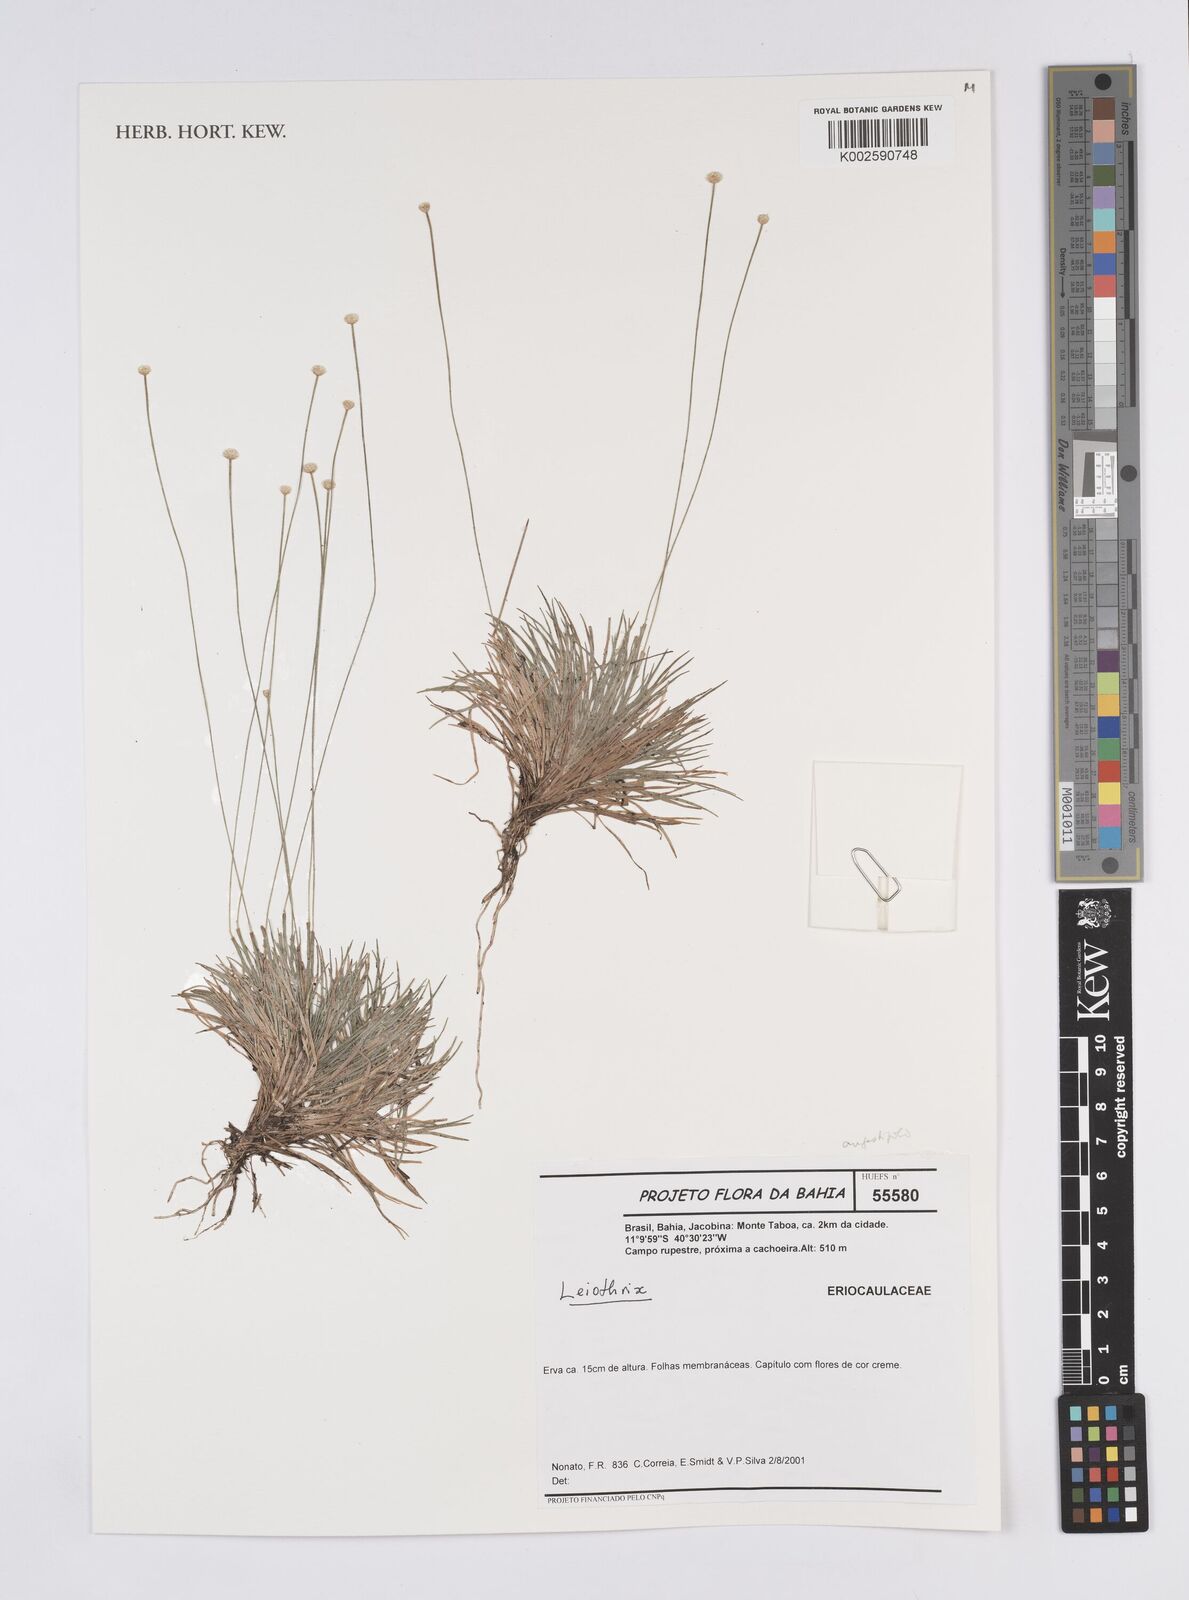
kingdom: Plantae
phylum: Tracheophyta
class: Liliopsida
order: Poales
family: Eriocaulaceae
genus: Leiothrix
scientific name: Leiothrix distichoclada
